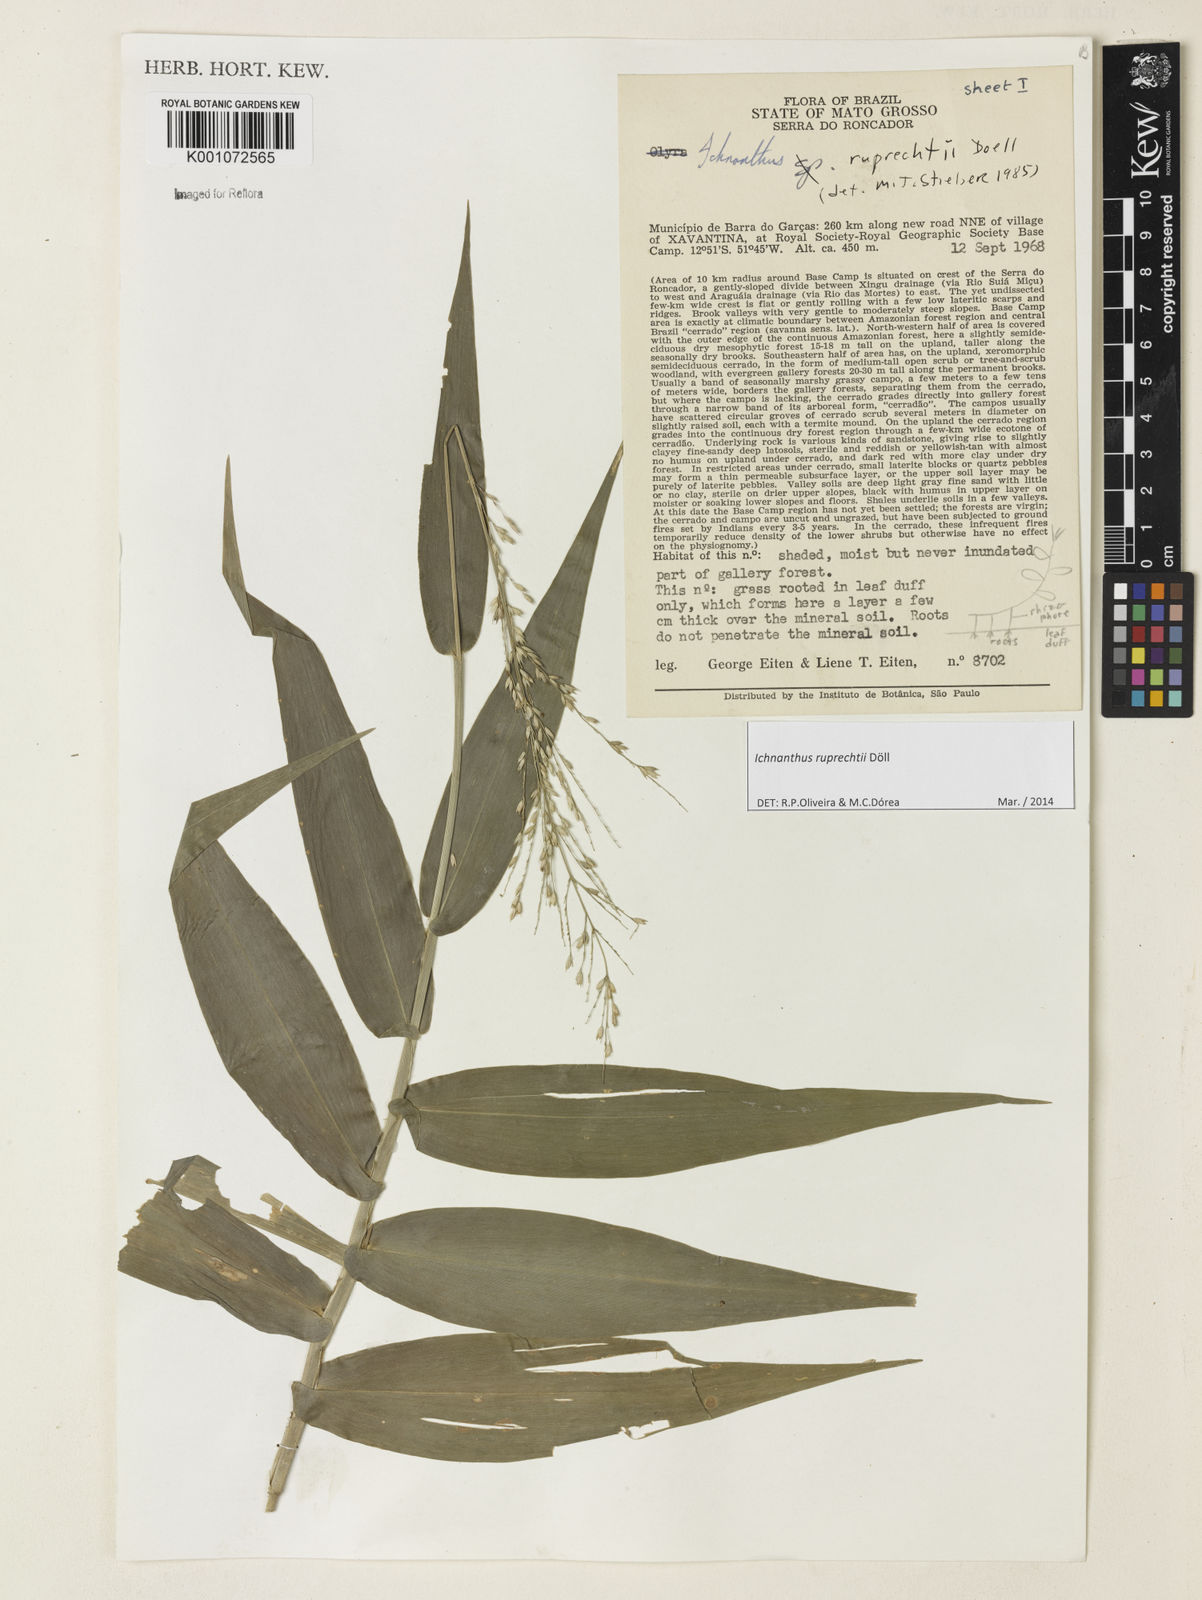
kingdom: Plantae
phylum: Tracheophyta
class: Liliopsida
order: Poales
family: Poaceae
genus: Ichnanthus
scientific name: Ichnanthus
